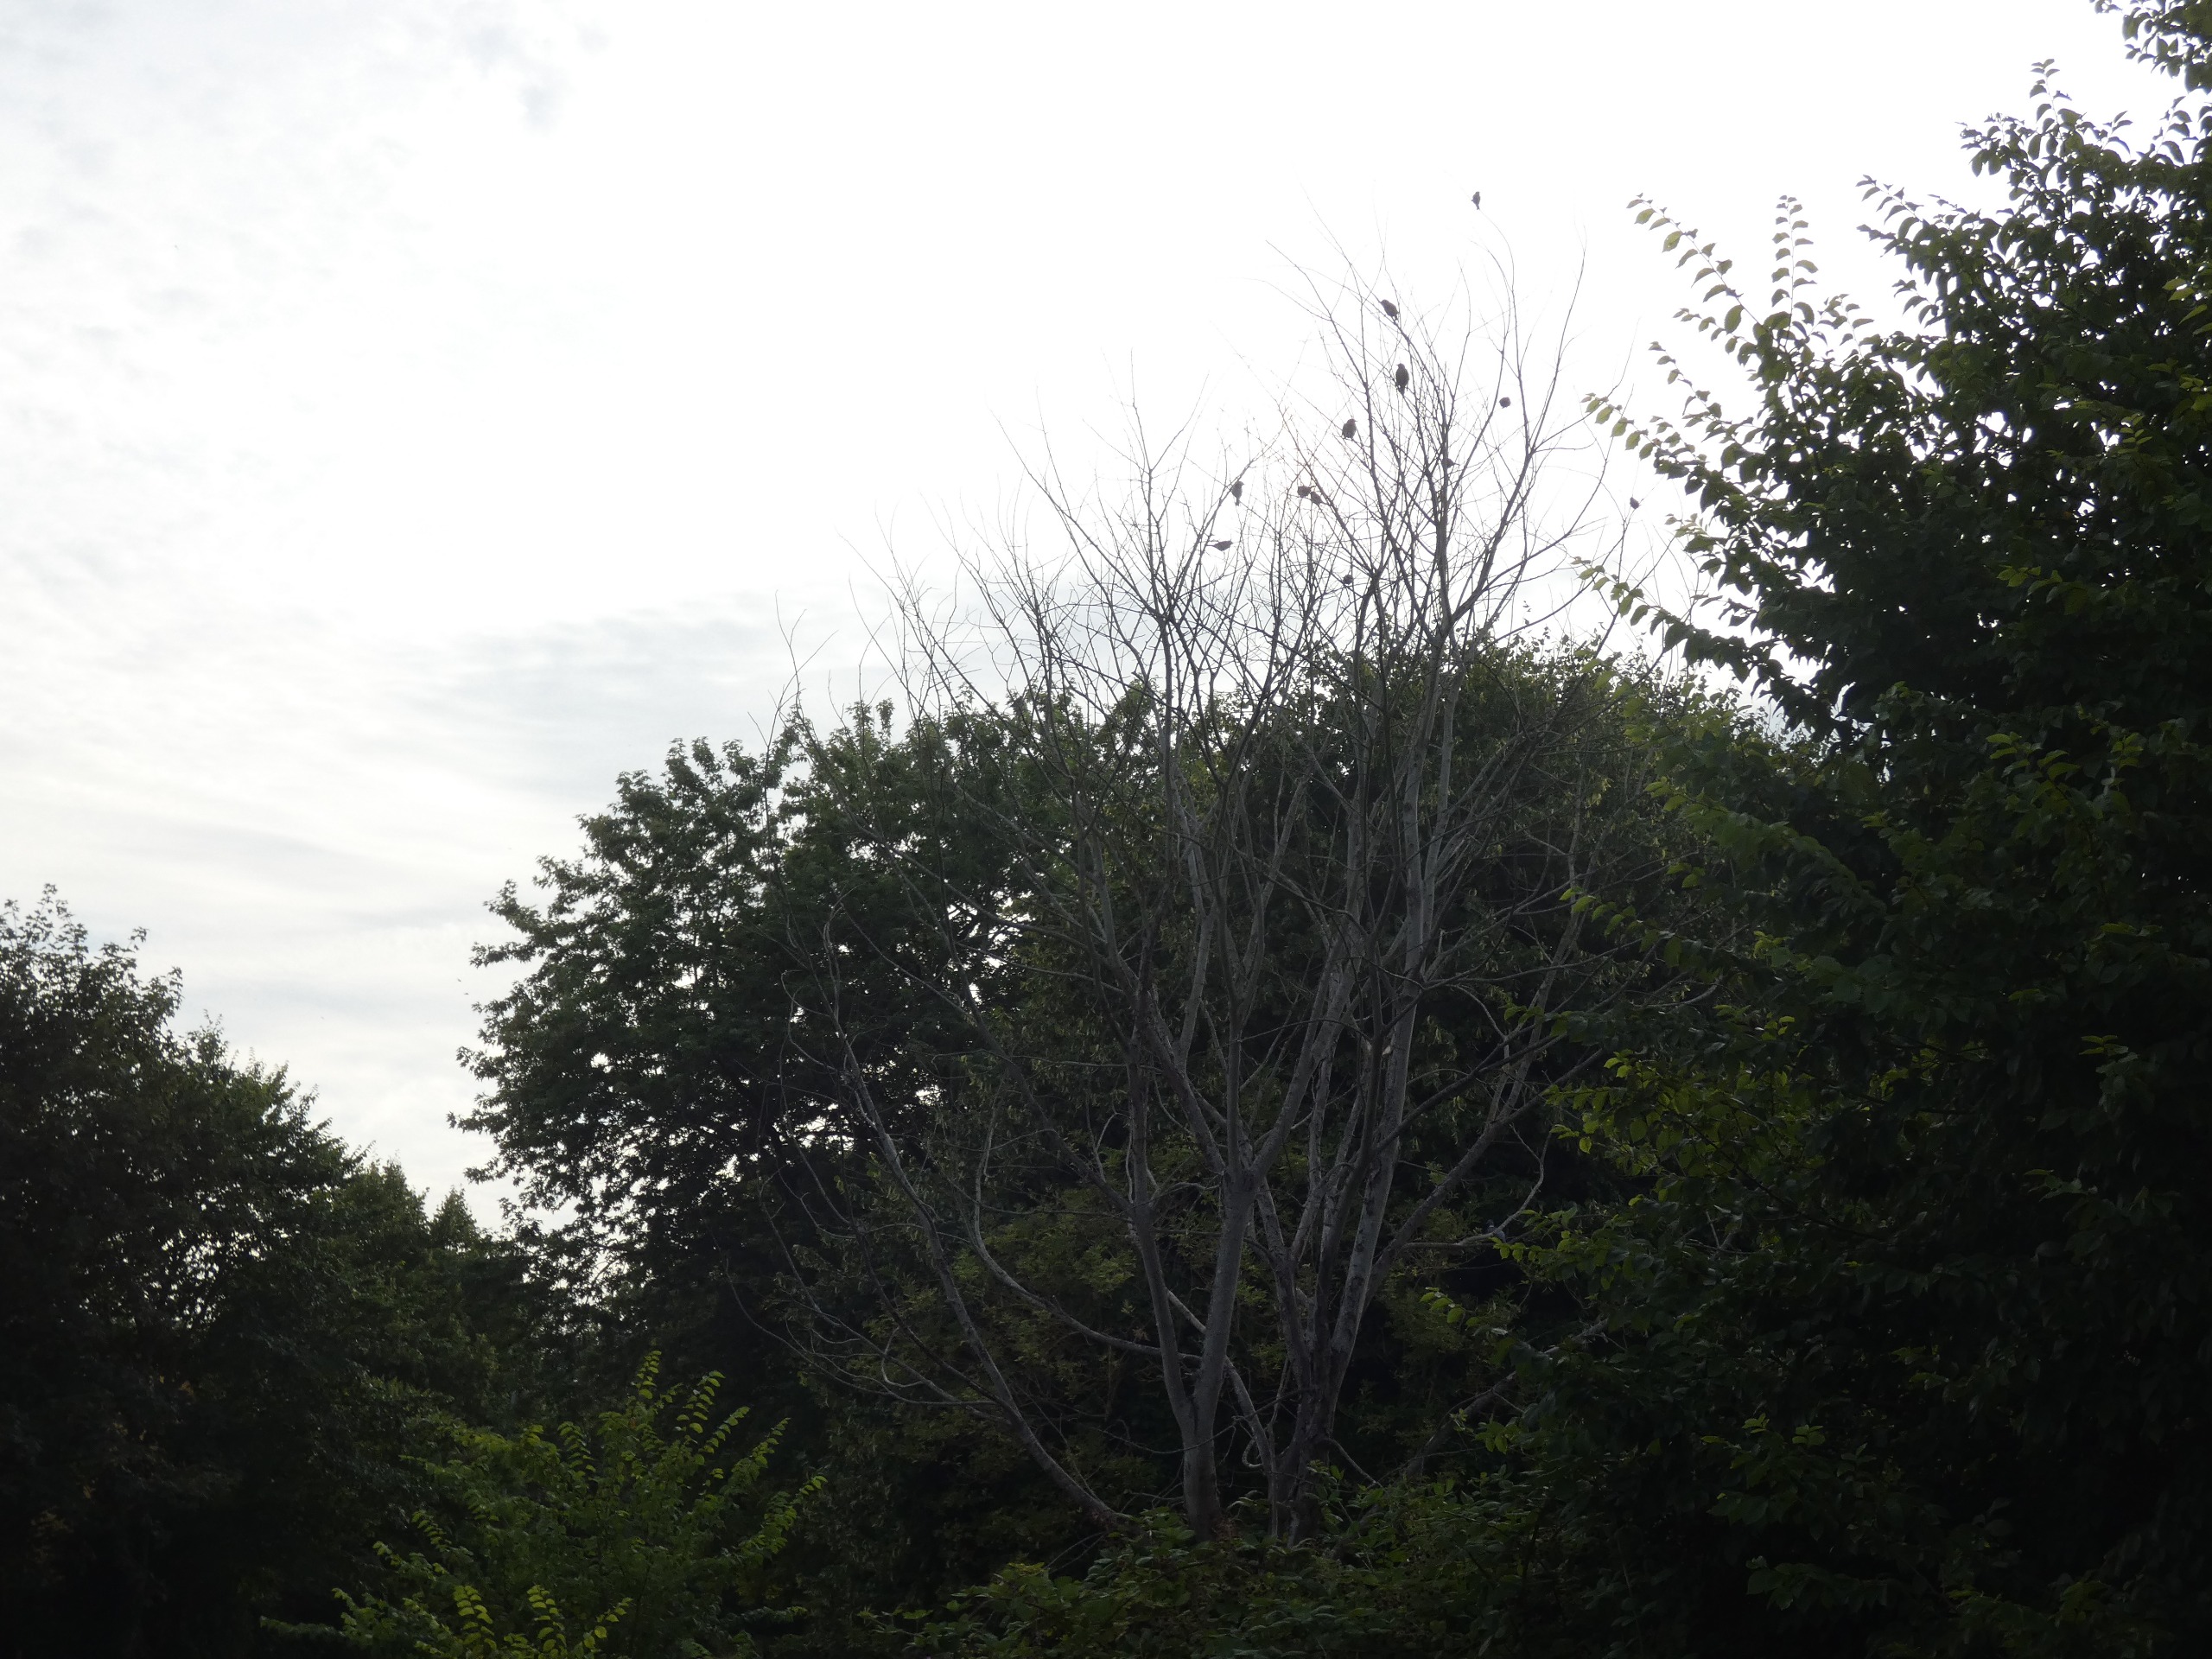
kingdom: Animalia
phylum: Chordata
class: Aves
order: Passeriformes
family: Sturnidae
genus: Sturnus
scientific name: Sturnus vulgaris
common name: Stær
